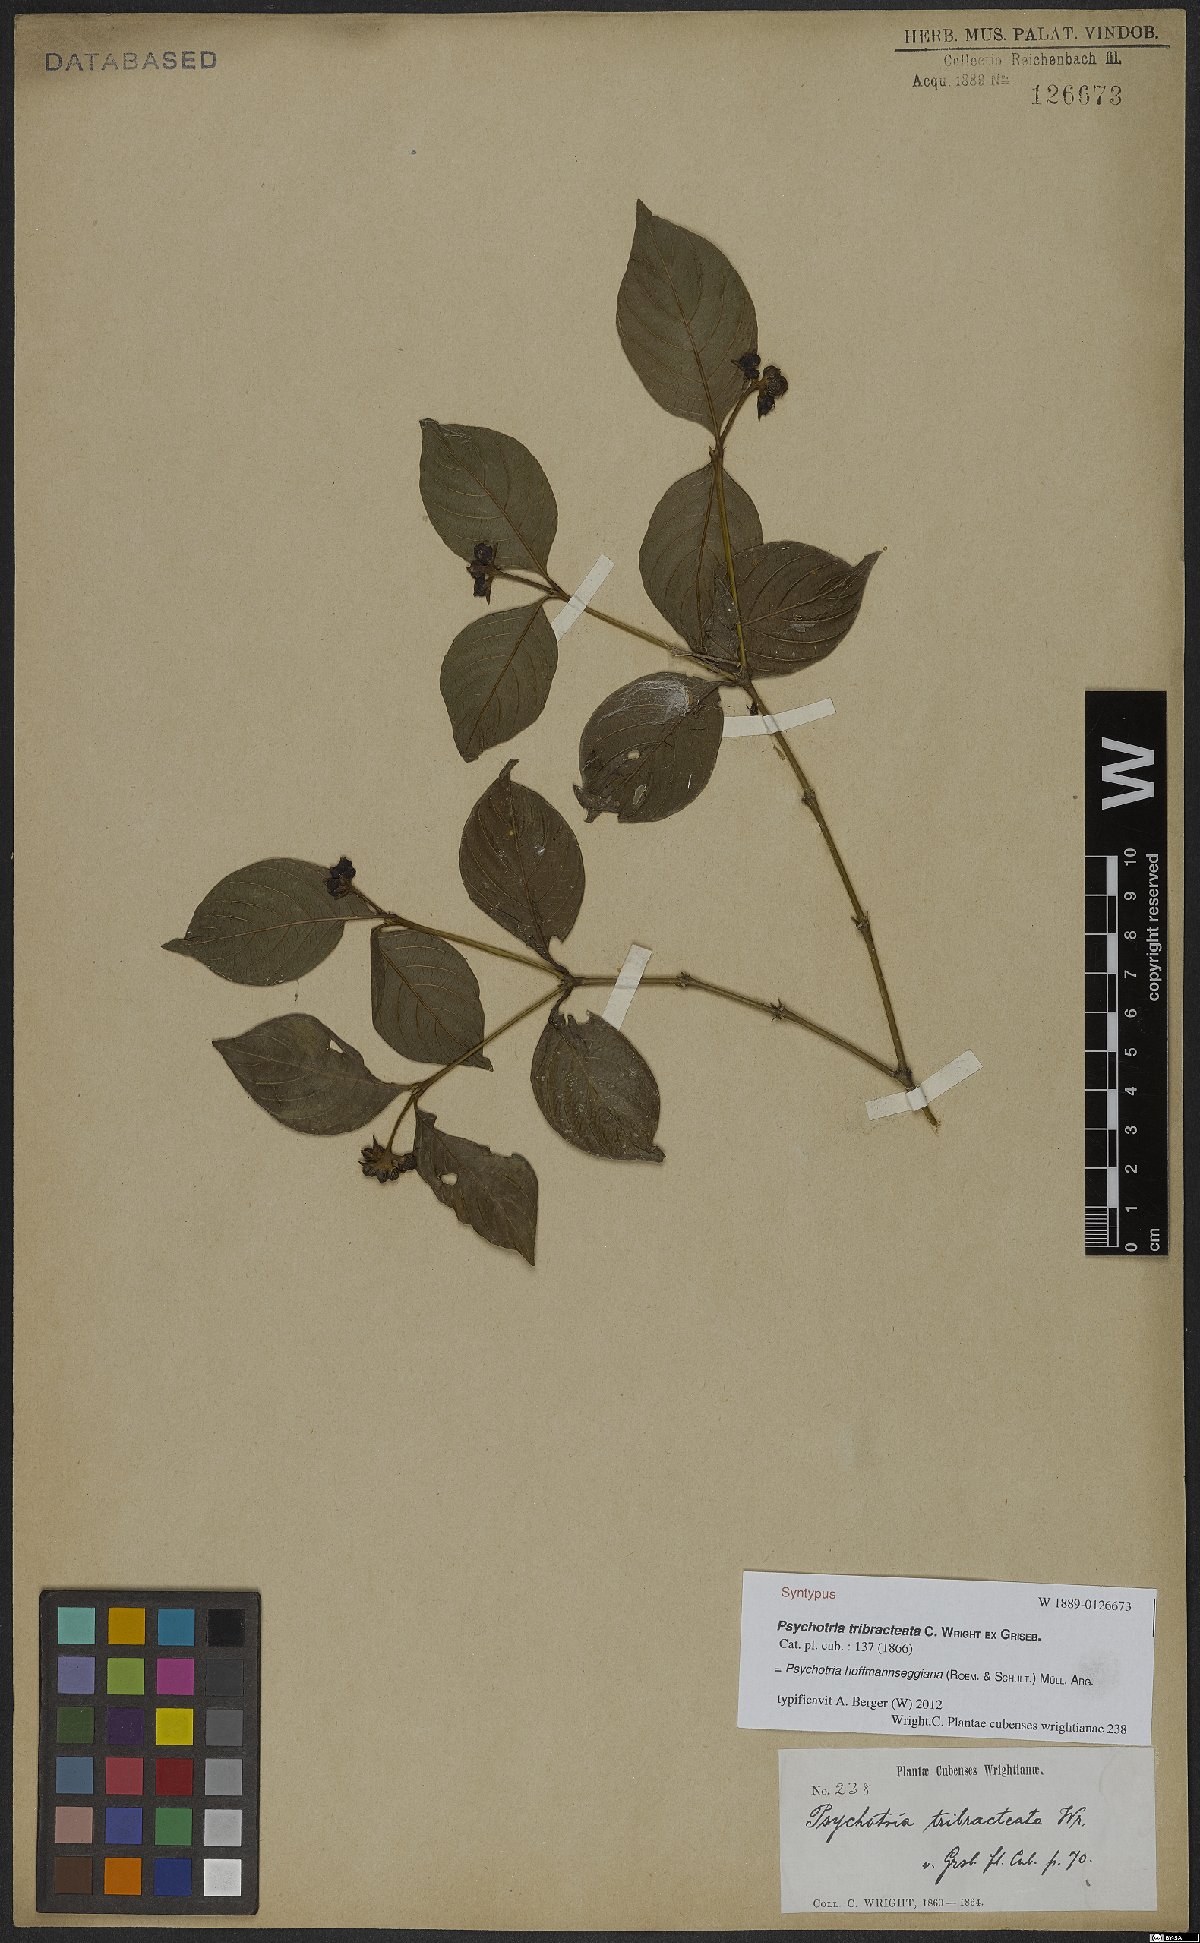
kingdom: Plantae
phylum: Tracheophyta
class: Magnoliopsida
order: Gentianales
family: Rubiaceae
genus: Palicourea
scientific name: Palicourea hoffmannseggiana
